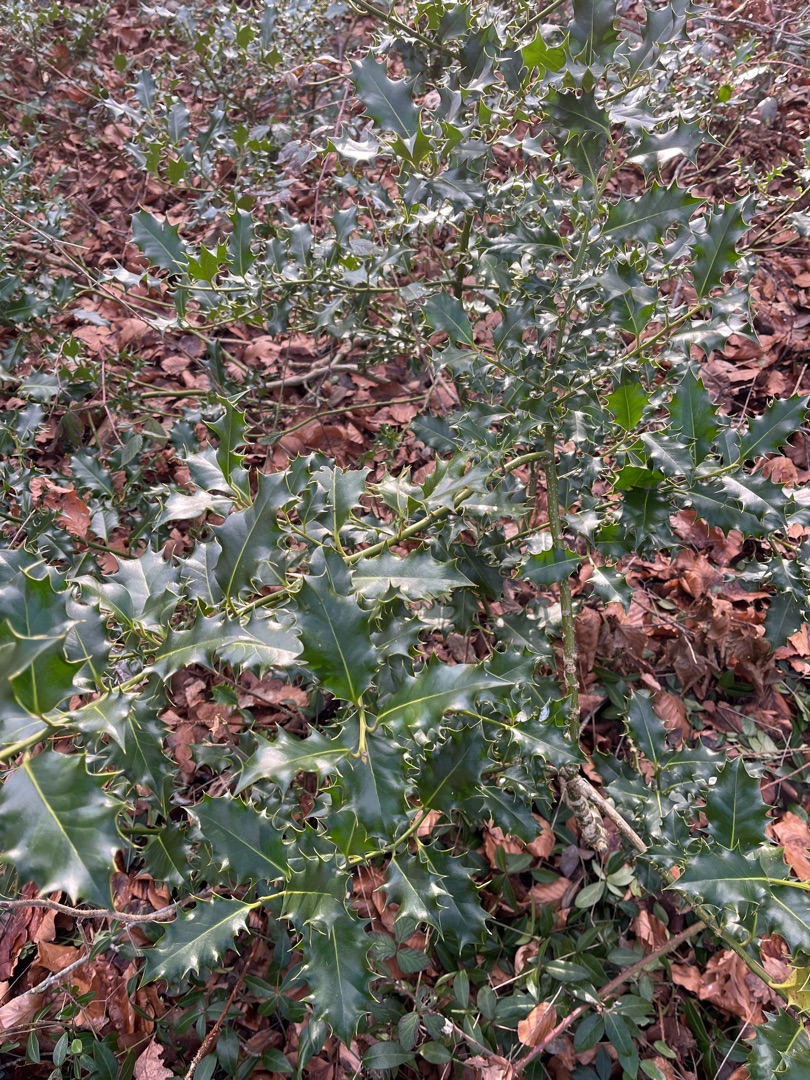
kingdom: Plantae
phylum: Tracheophyta
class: Magnoliopsida
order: Aquifoliales
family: Aquifoliaceae
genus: Ilex
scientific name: Ilex aquifolium
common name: Kristtorn
